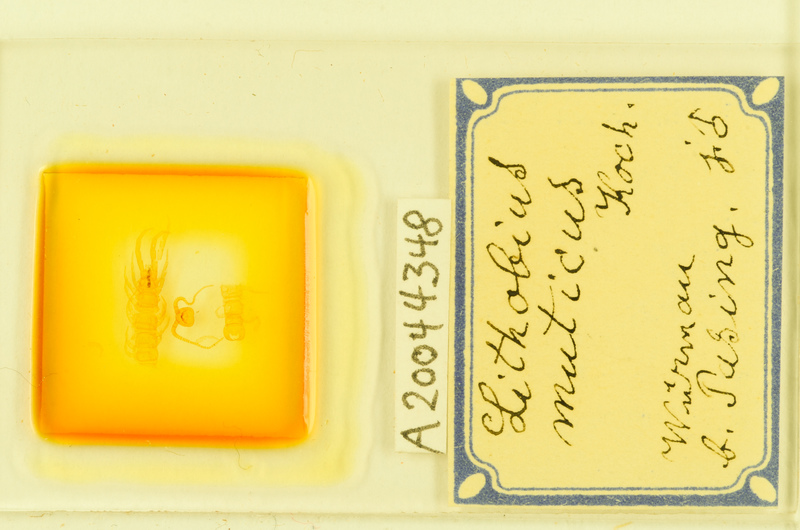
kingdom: Animalia
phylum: Arthropoda
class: Chilopoda
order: Lithobiomorpha
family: Lithobiidae
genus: Lithobius
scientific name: Lithobius muticus
